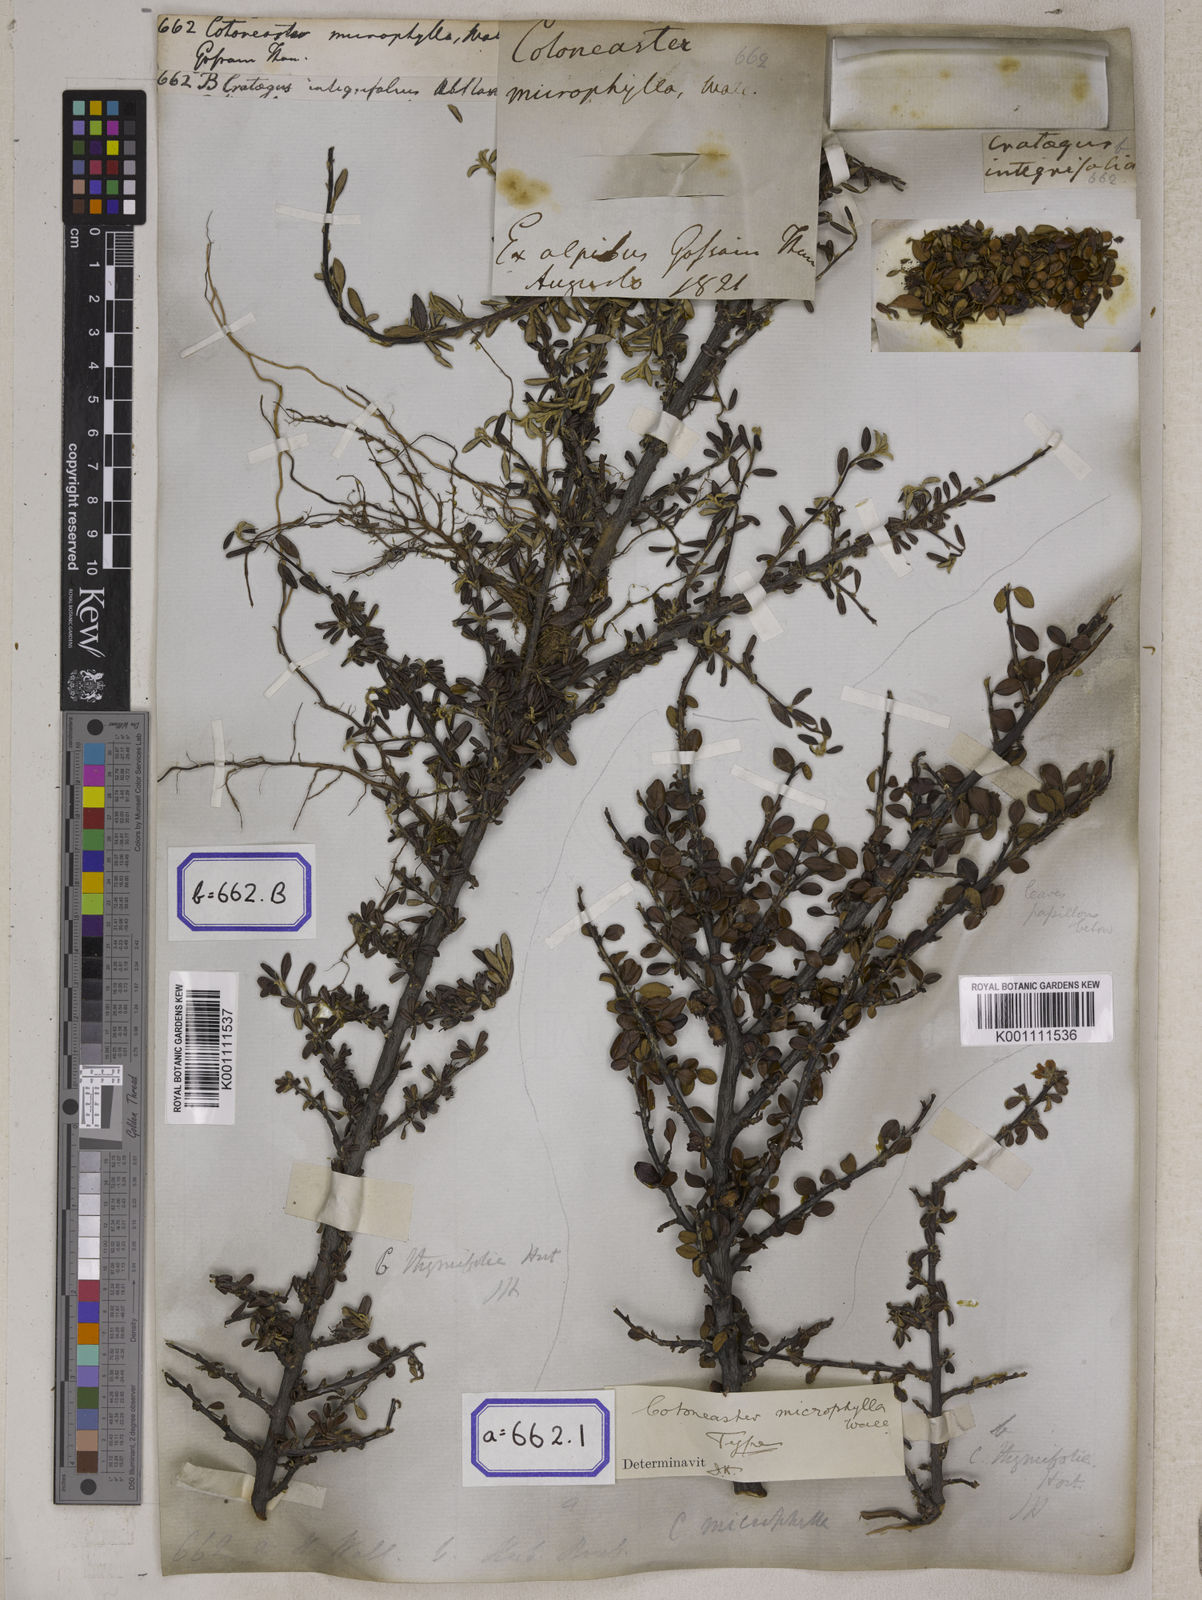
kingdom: Plantae
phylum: Tracheophyta
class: Magnoliopsida
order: Rosales
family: Rosaceae
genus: Cotoneaster
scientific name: Cotoneaster
